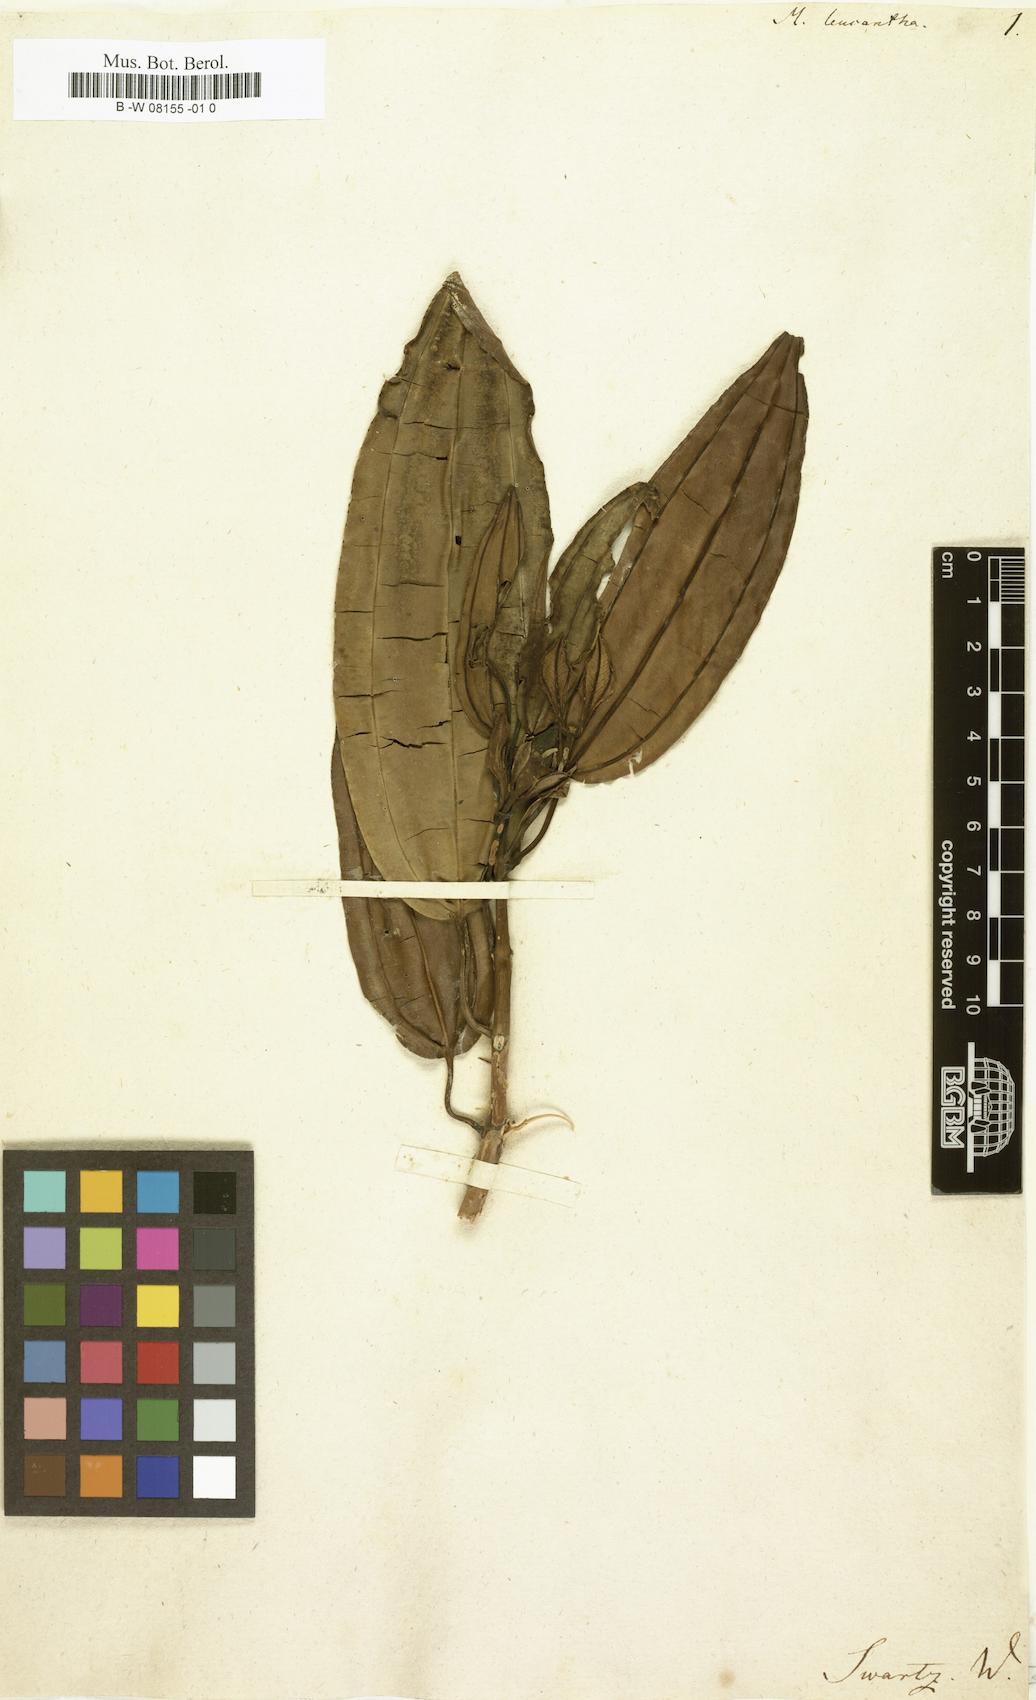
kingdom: Plantae
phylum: Tracheophyta
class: Magnoliopsida
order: Myrtales
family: Melastomataceae
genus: Meriania
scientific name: Meriania leucantha
